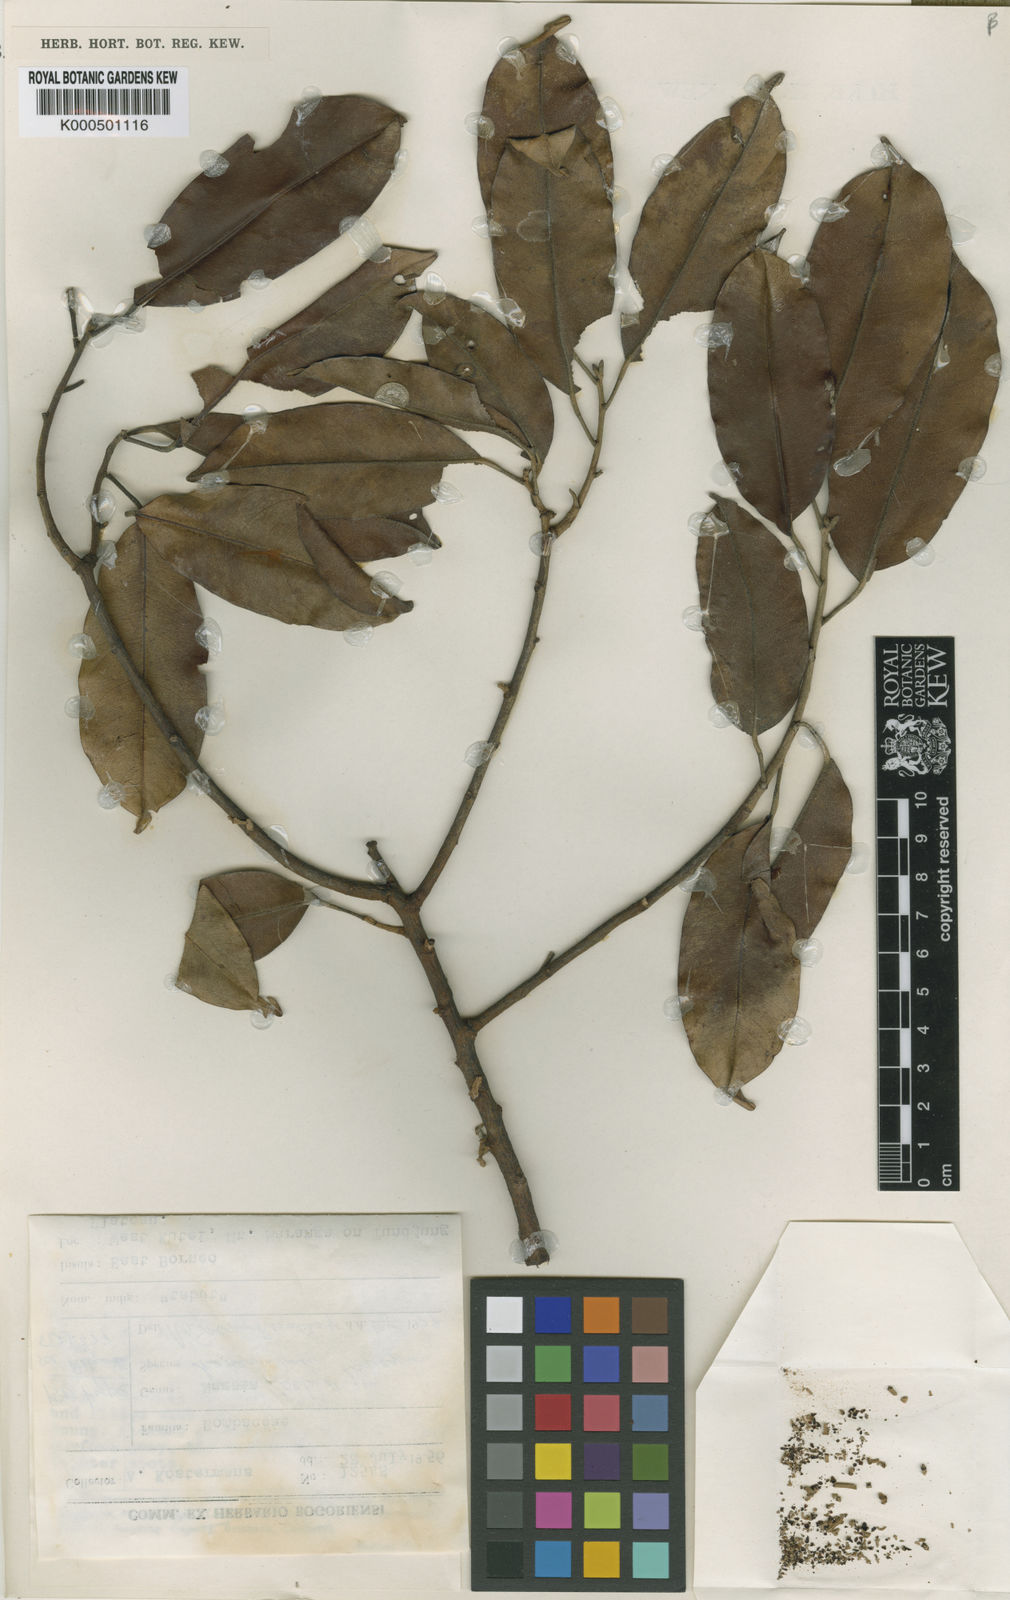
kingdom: Plantae
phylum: Tracheophyta
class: Magnoliopsida
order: Malvales
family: Malvaceae
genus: Coelostegia
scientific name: Coelostegia kostermansii
